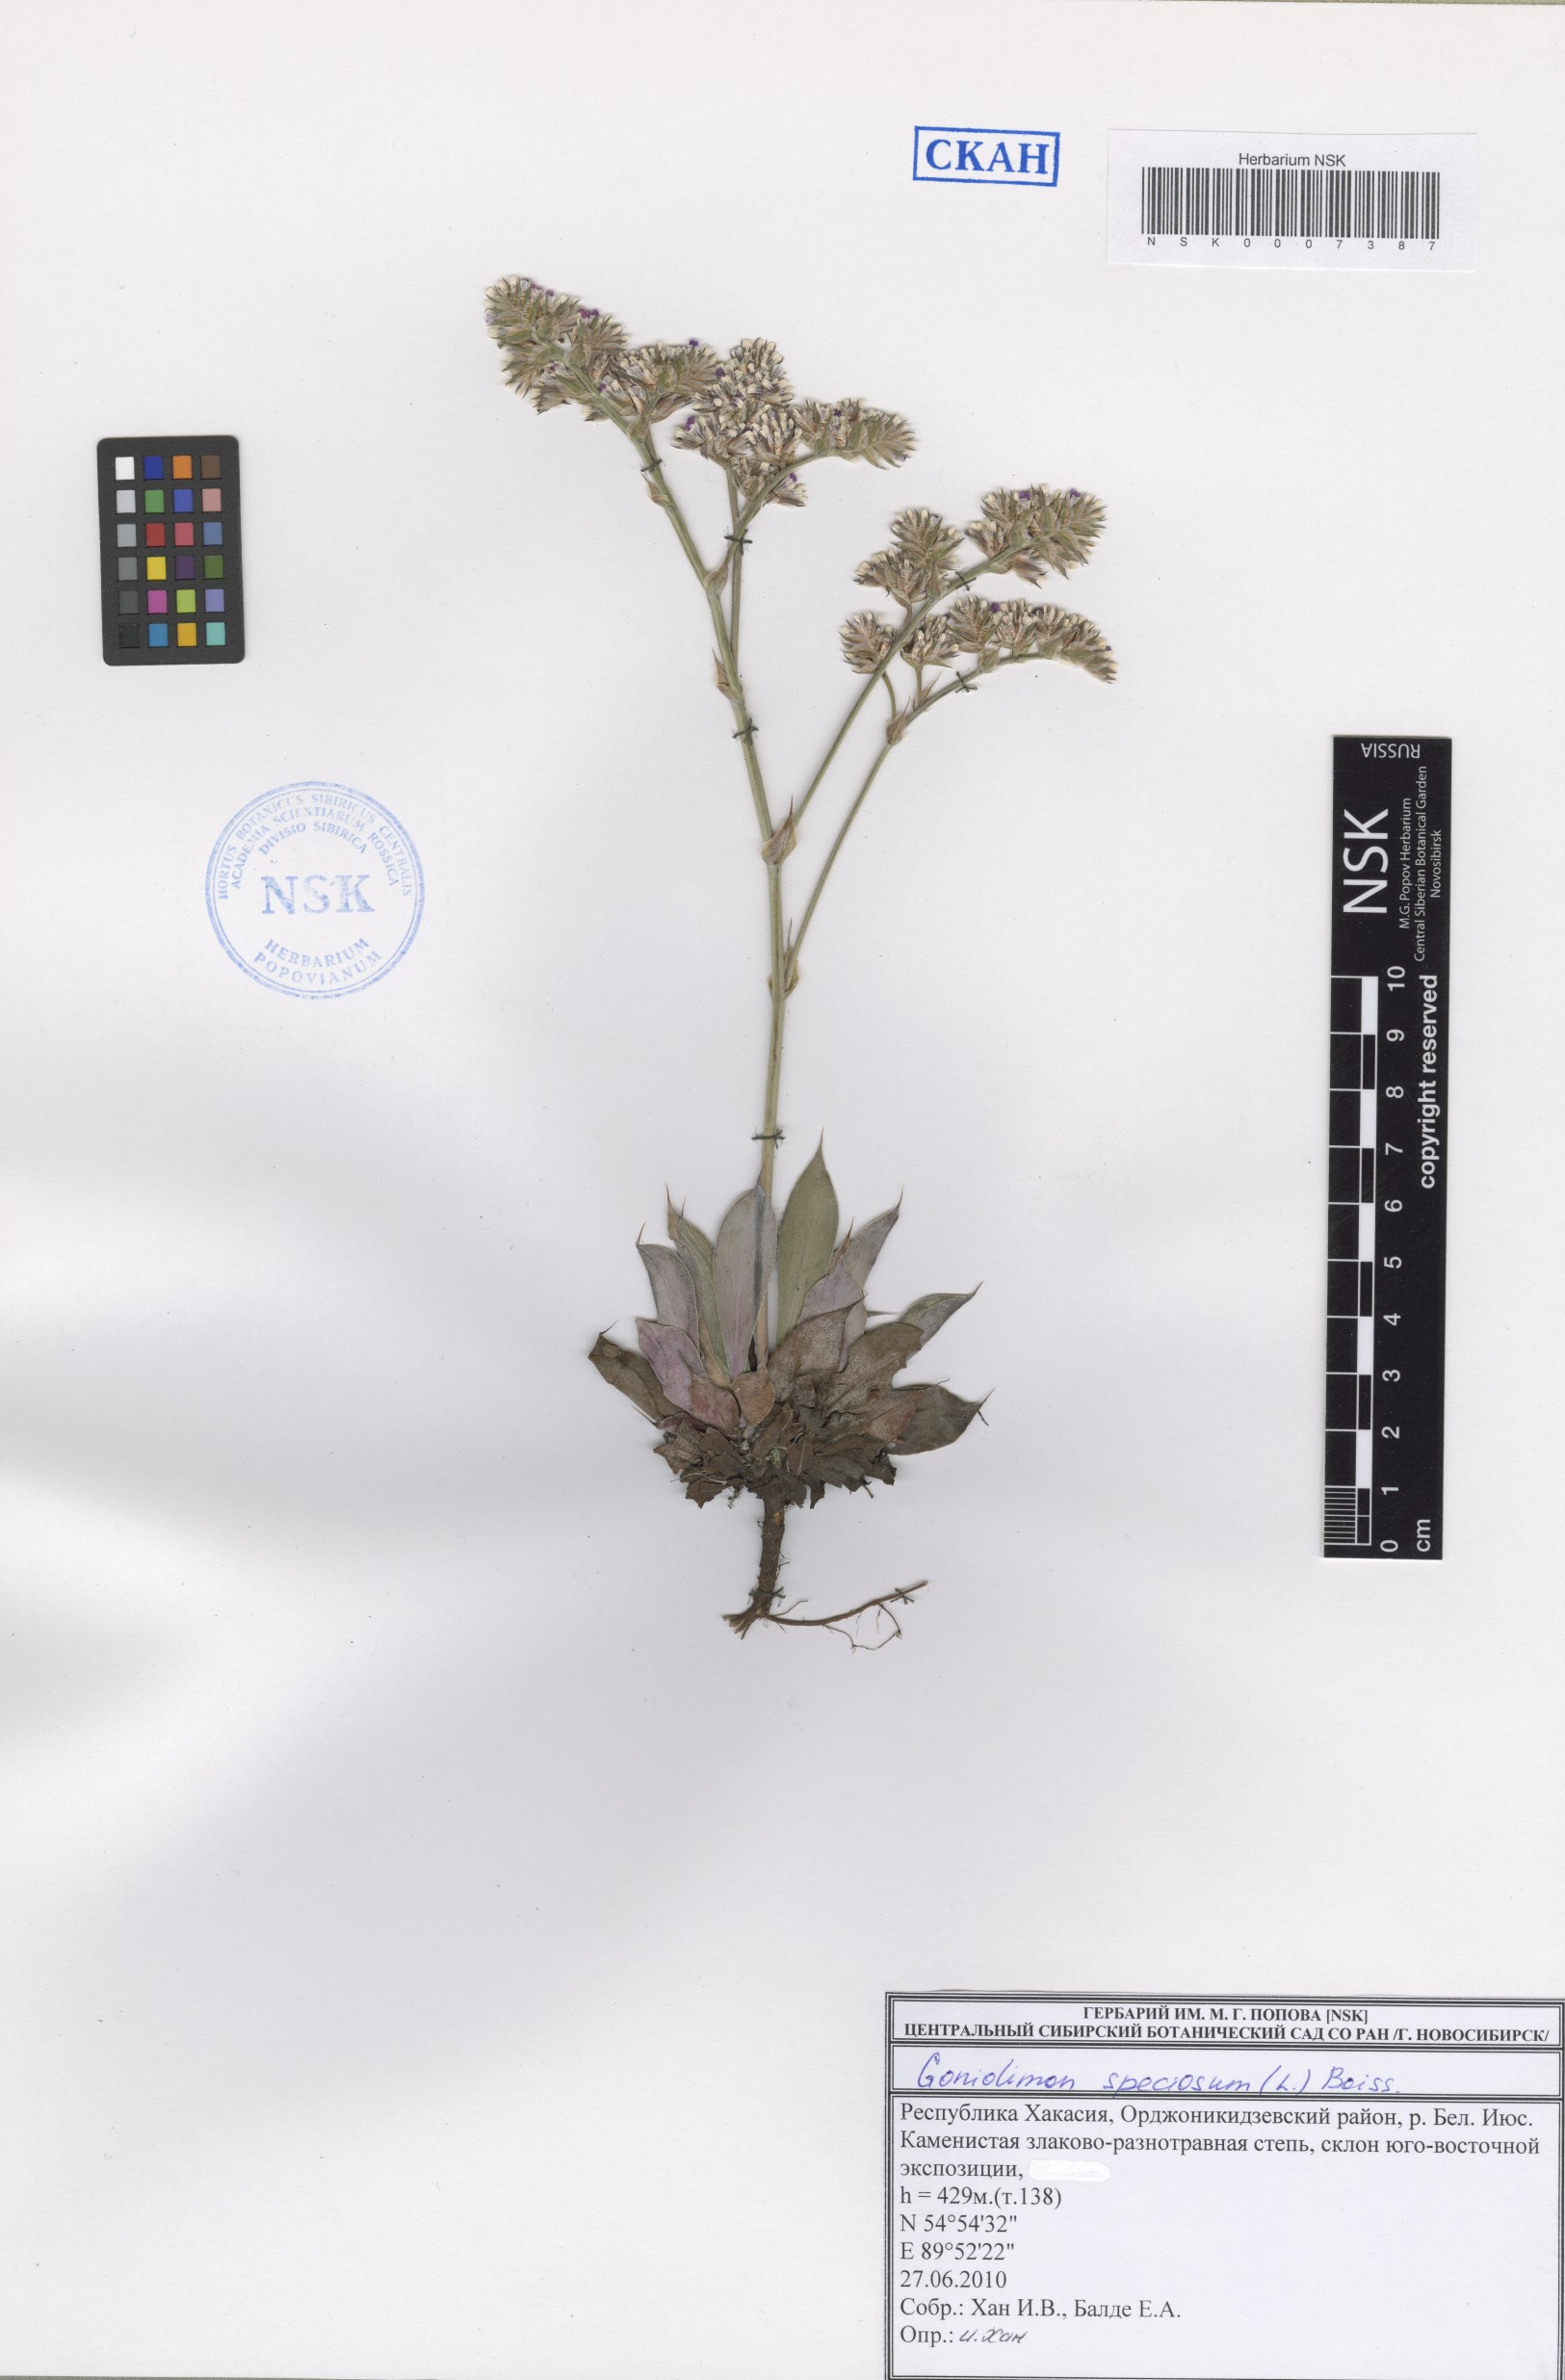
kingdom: Plantae
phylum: Tracheophyta
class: Magnoliopsida
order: Caryophyllales
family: Plumbaginaceae
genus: Goniolimon
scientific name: Goniolimon speciosum
